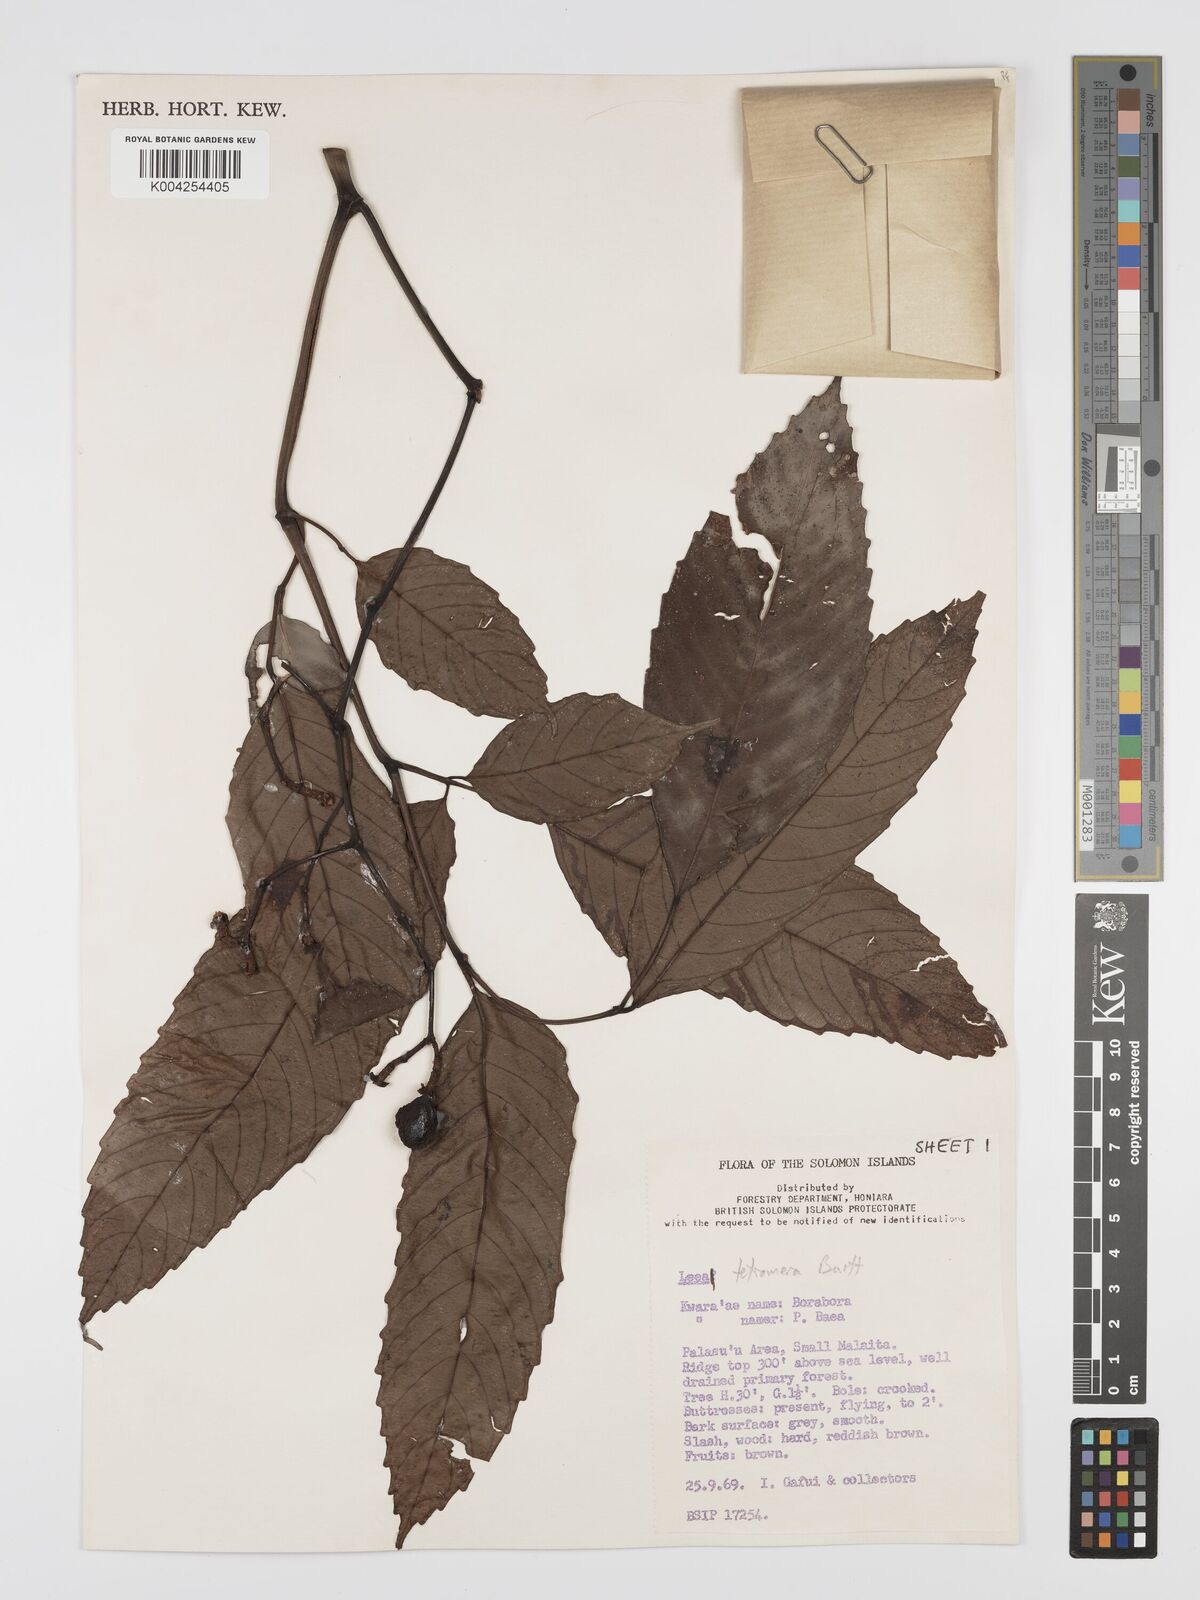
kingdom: Plantae
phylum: Tracheophyta
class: Magnoliopsida
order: Vitales
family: Vitaceae
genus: Leea
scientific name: Leea tetramera
